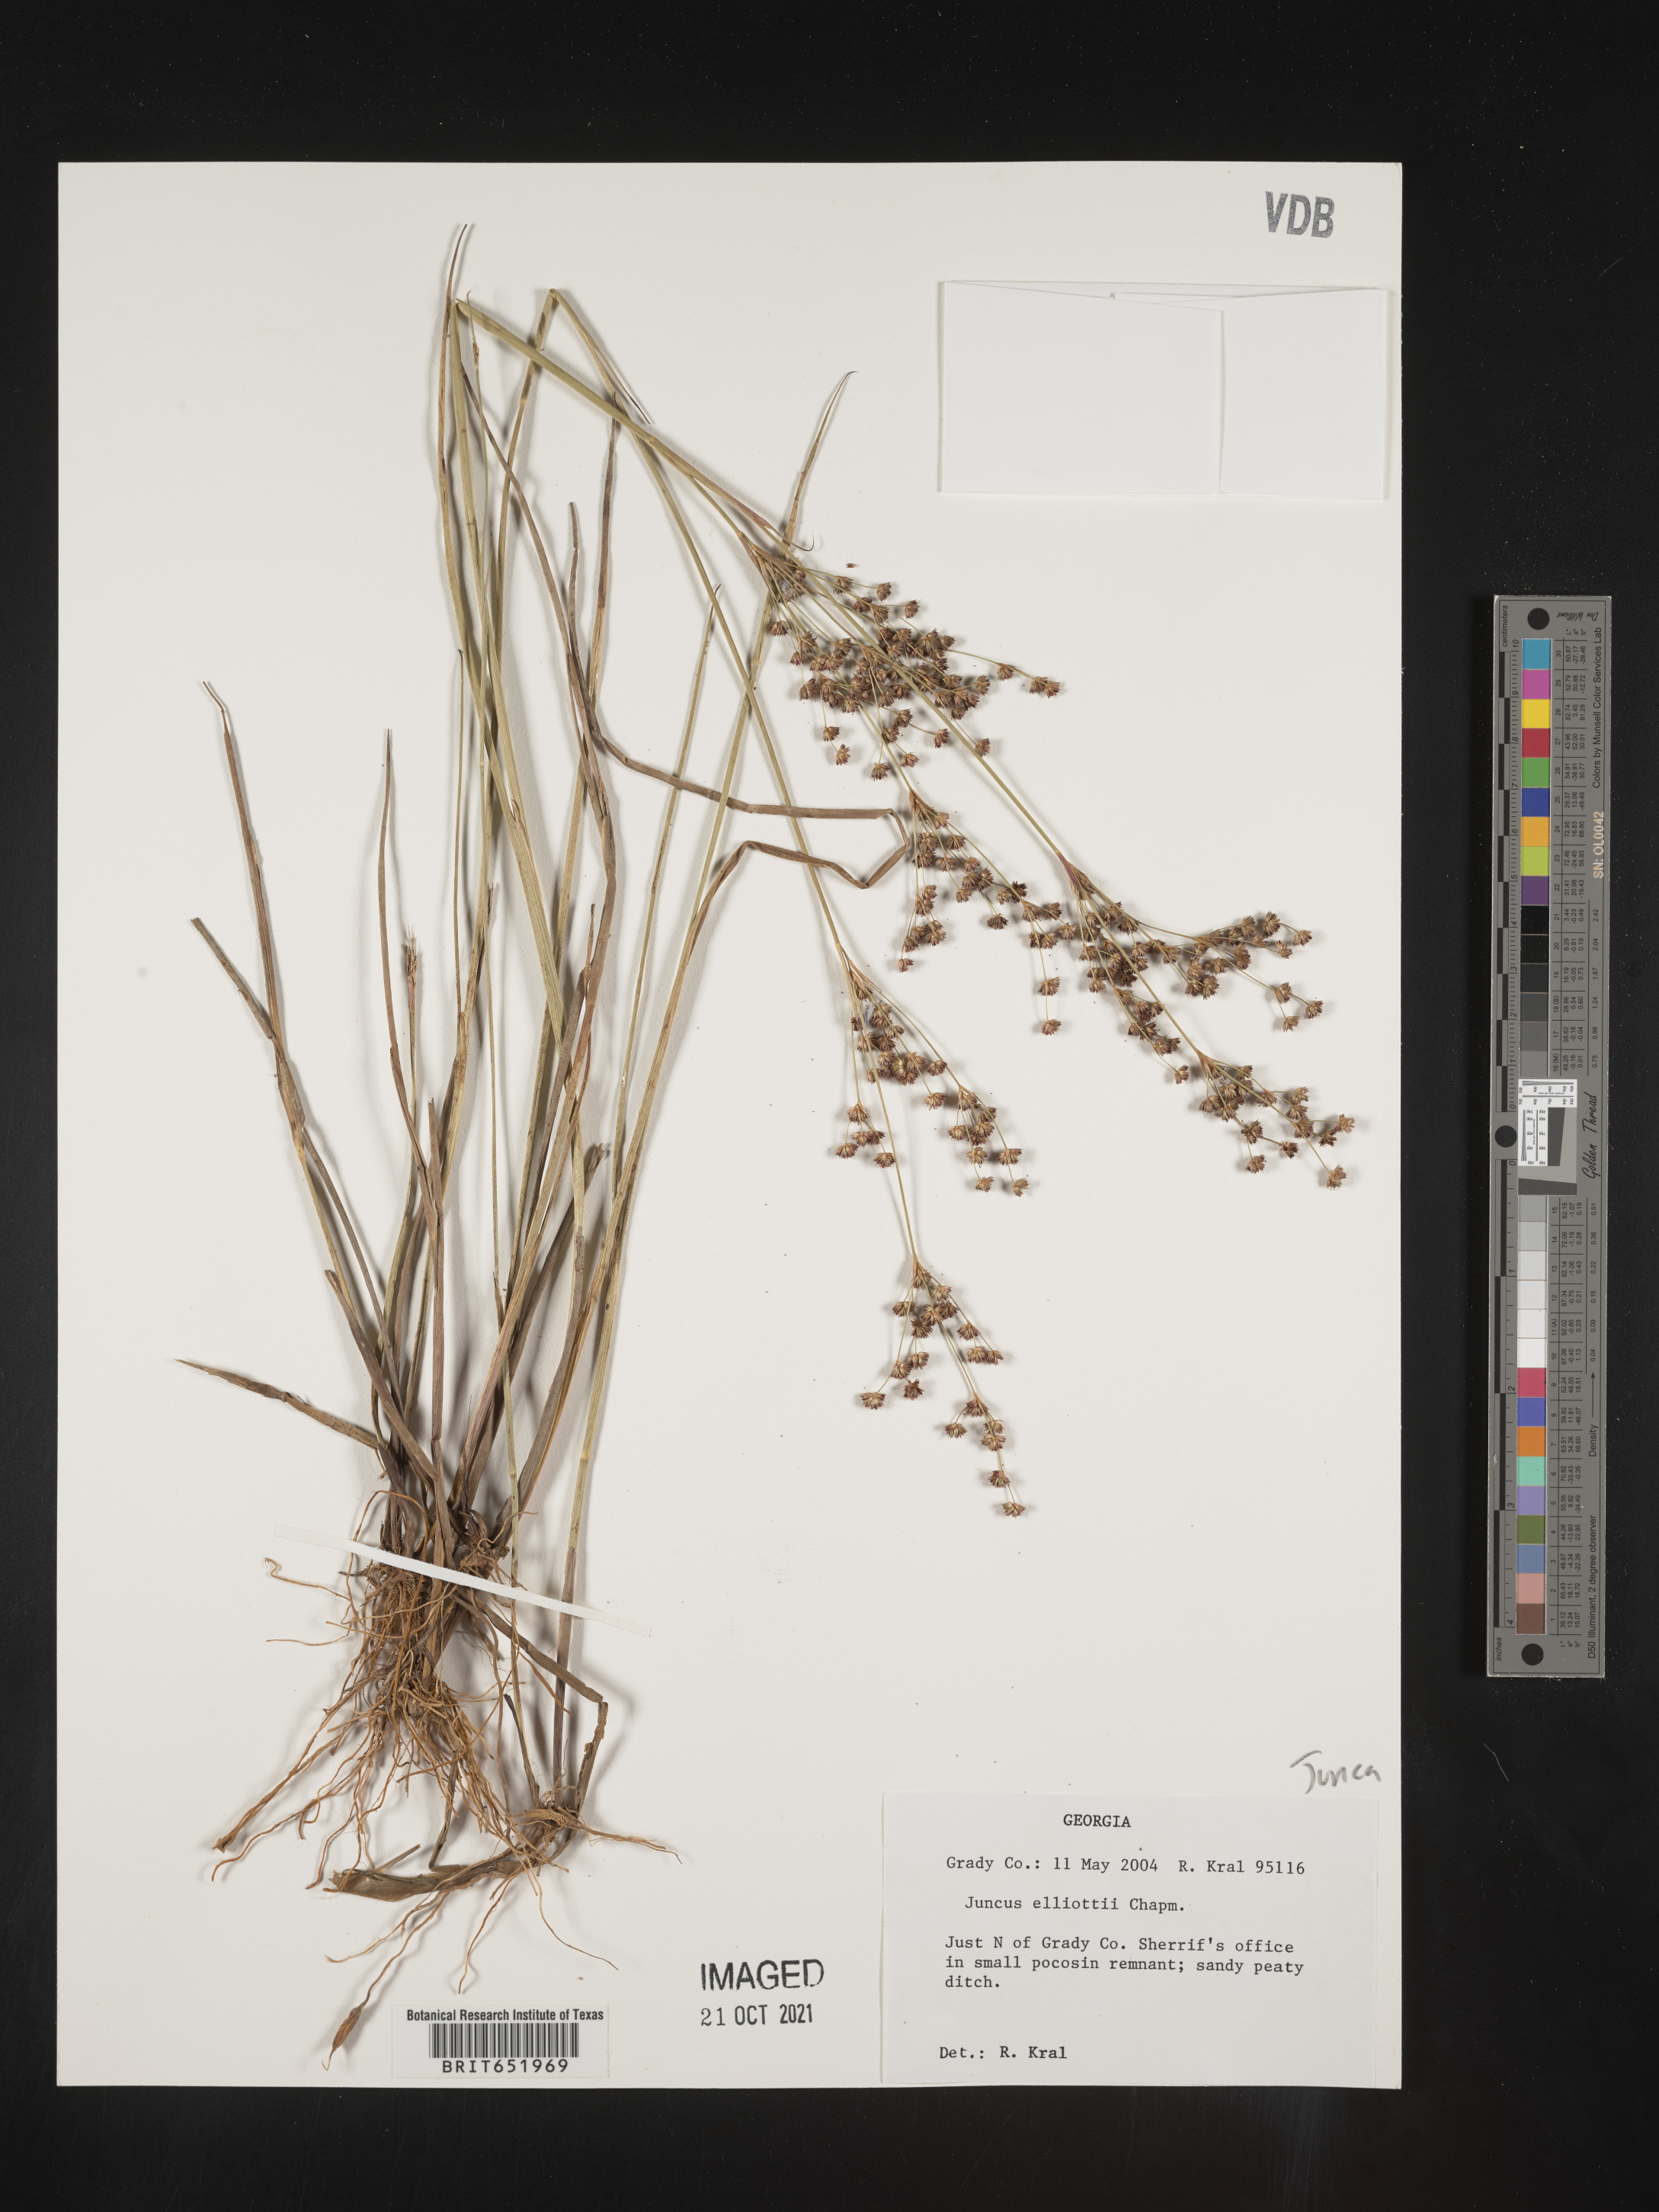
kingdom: Plantae
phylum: Tracheophyta
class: Liliopsida
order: Poales
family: Juncaceae
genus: Juncus
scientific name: Juncus elliottii
